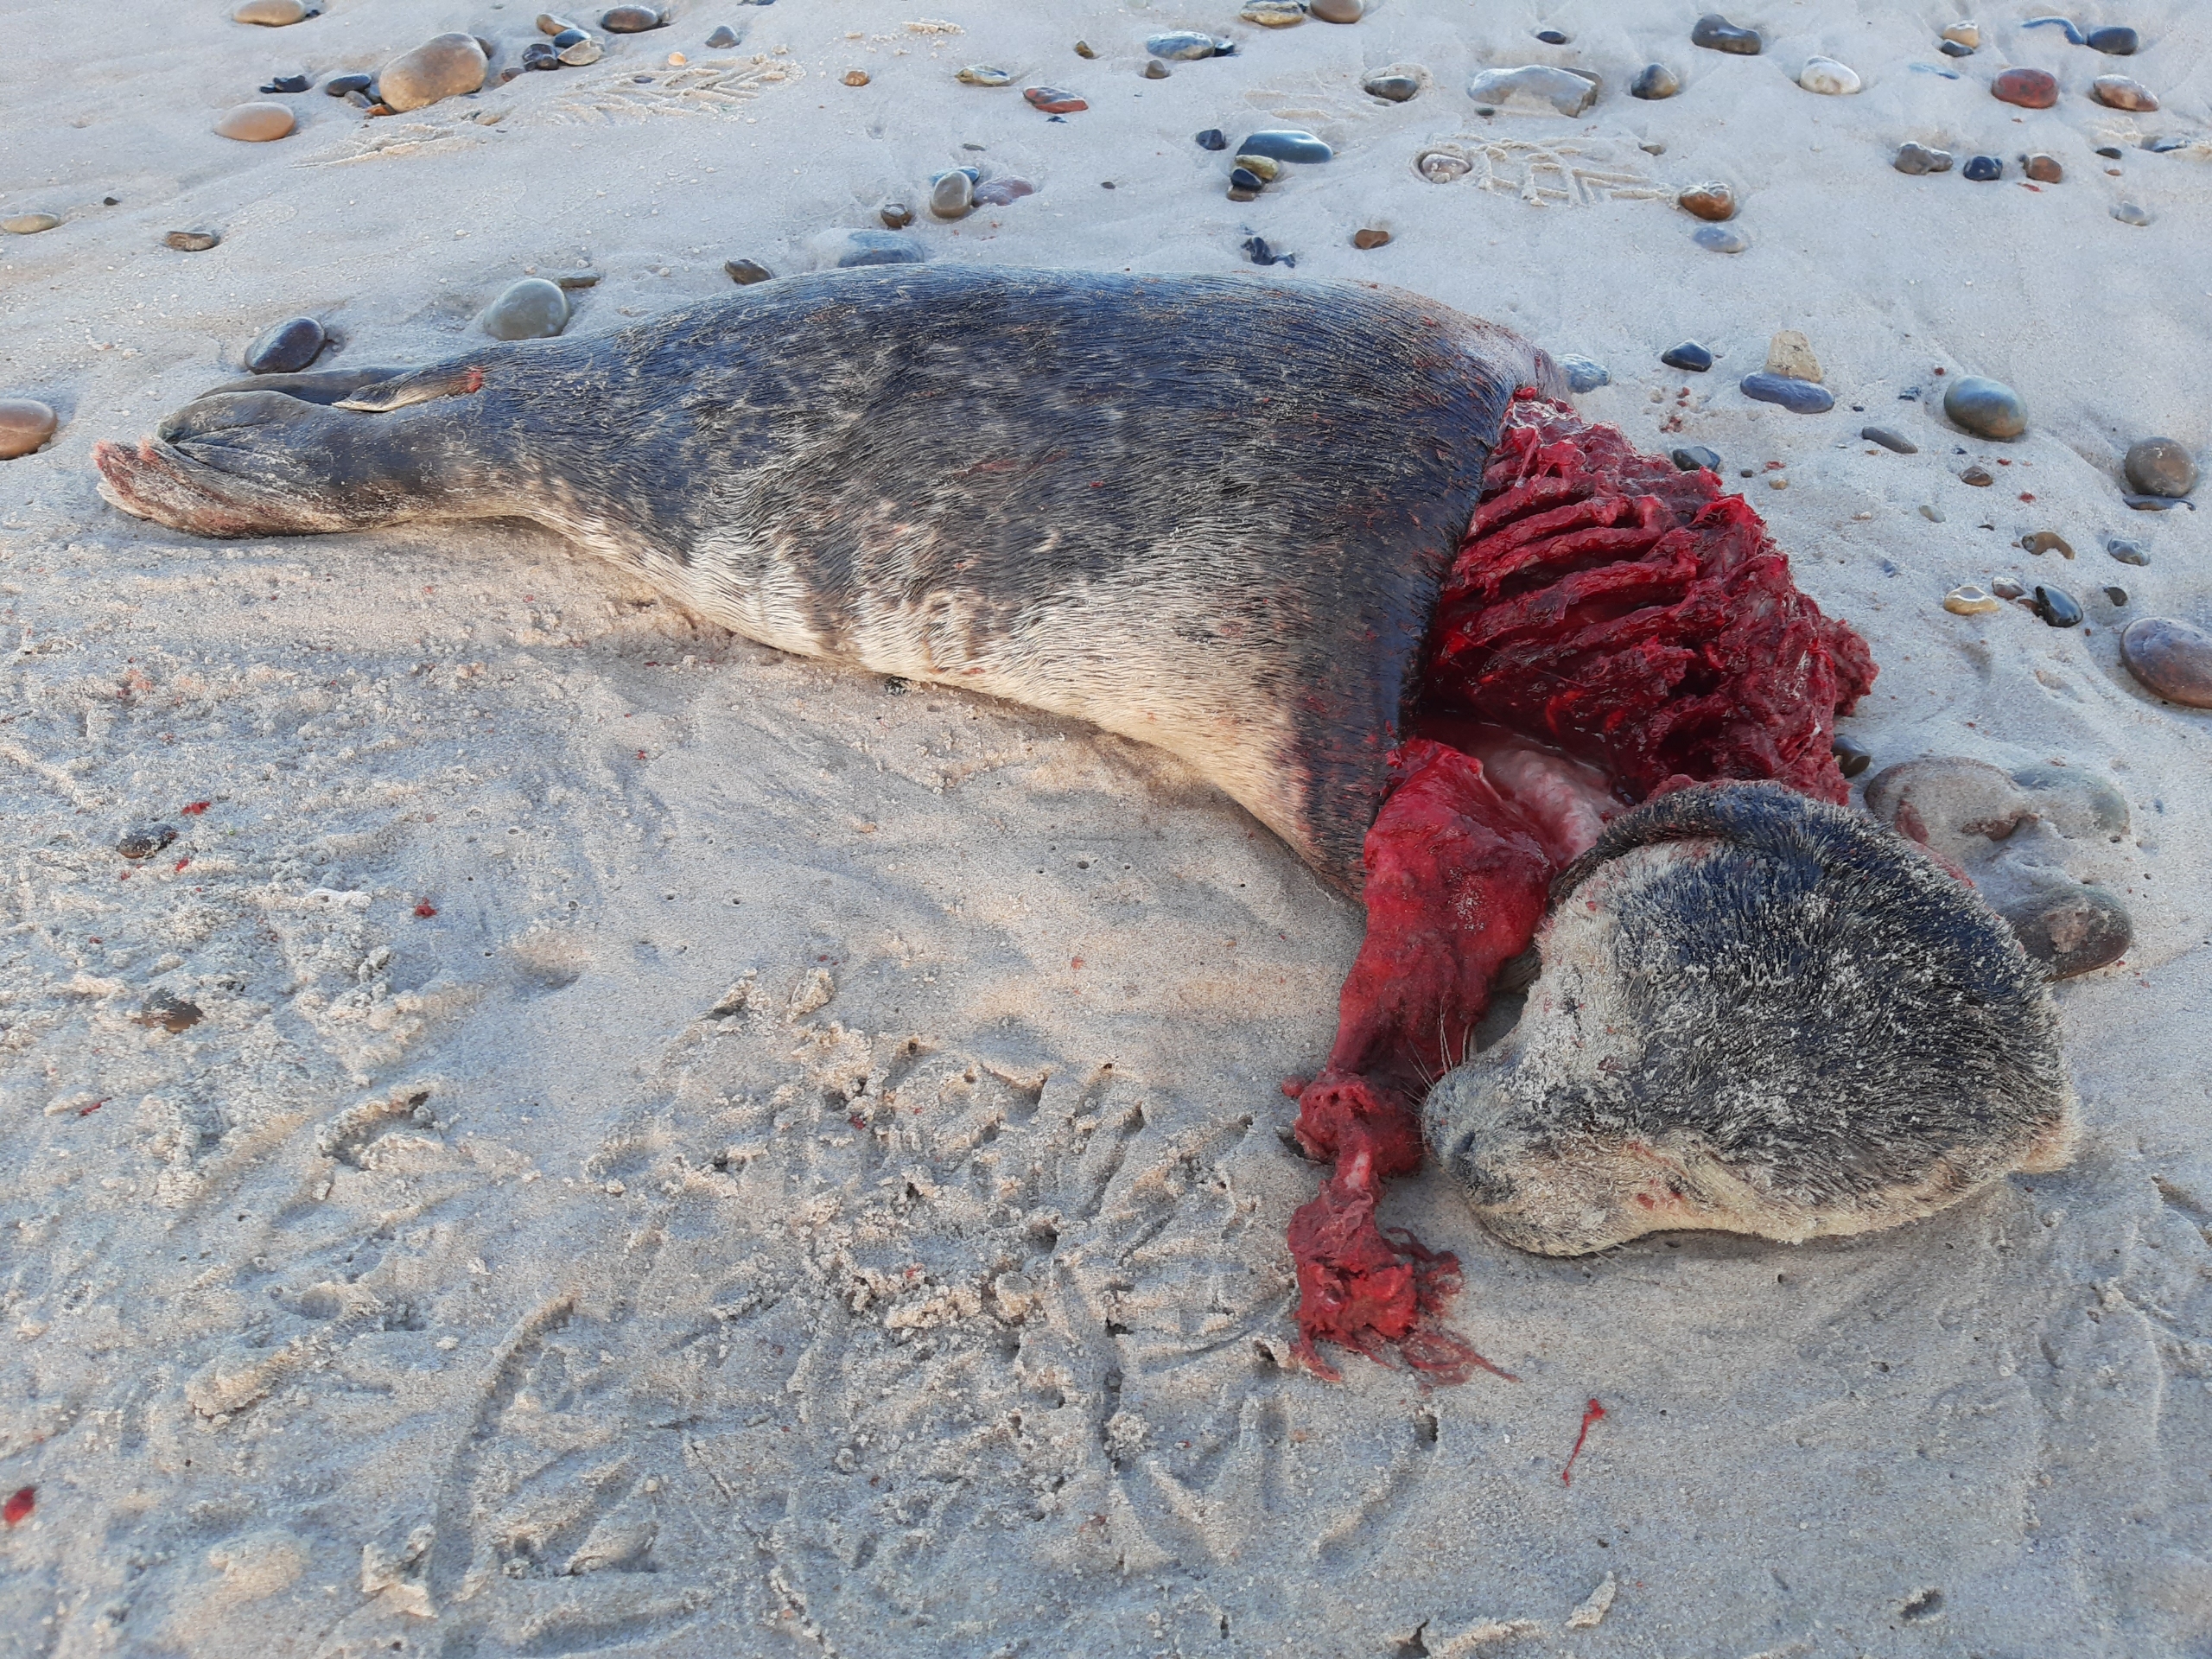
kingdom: Animalia
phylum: Chordata
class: Mammalia
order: Carnivora
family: Phocidae
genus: Phoca
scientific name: Phoca vitulina
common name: Spættet sæl
